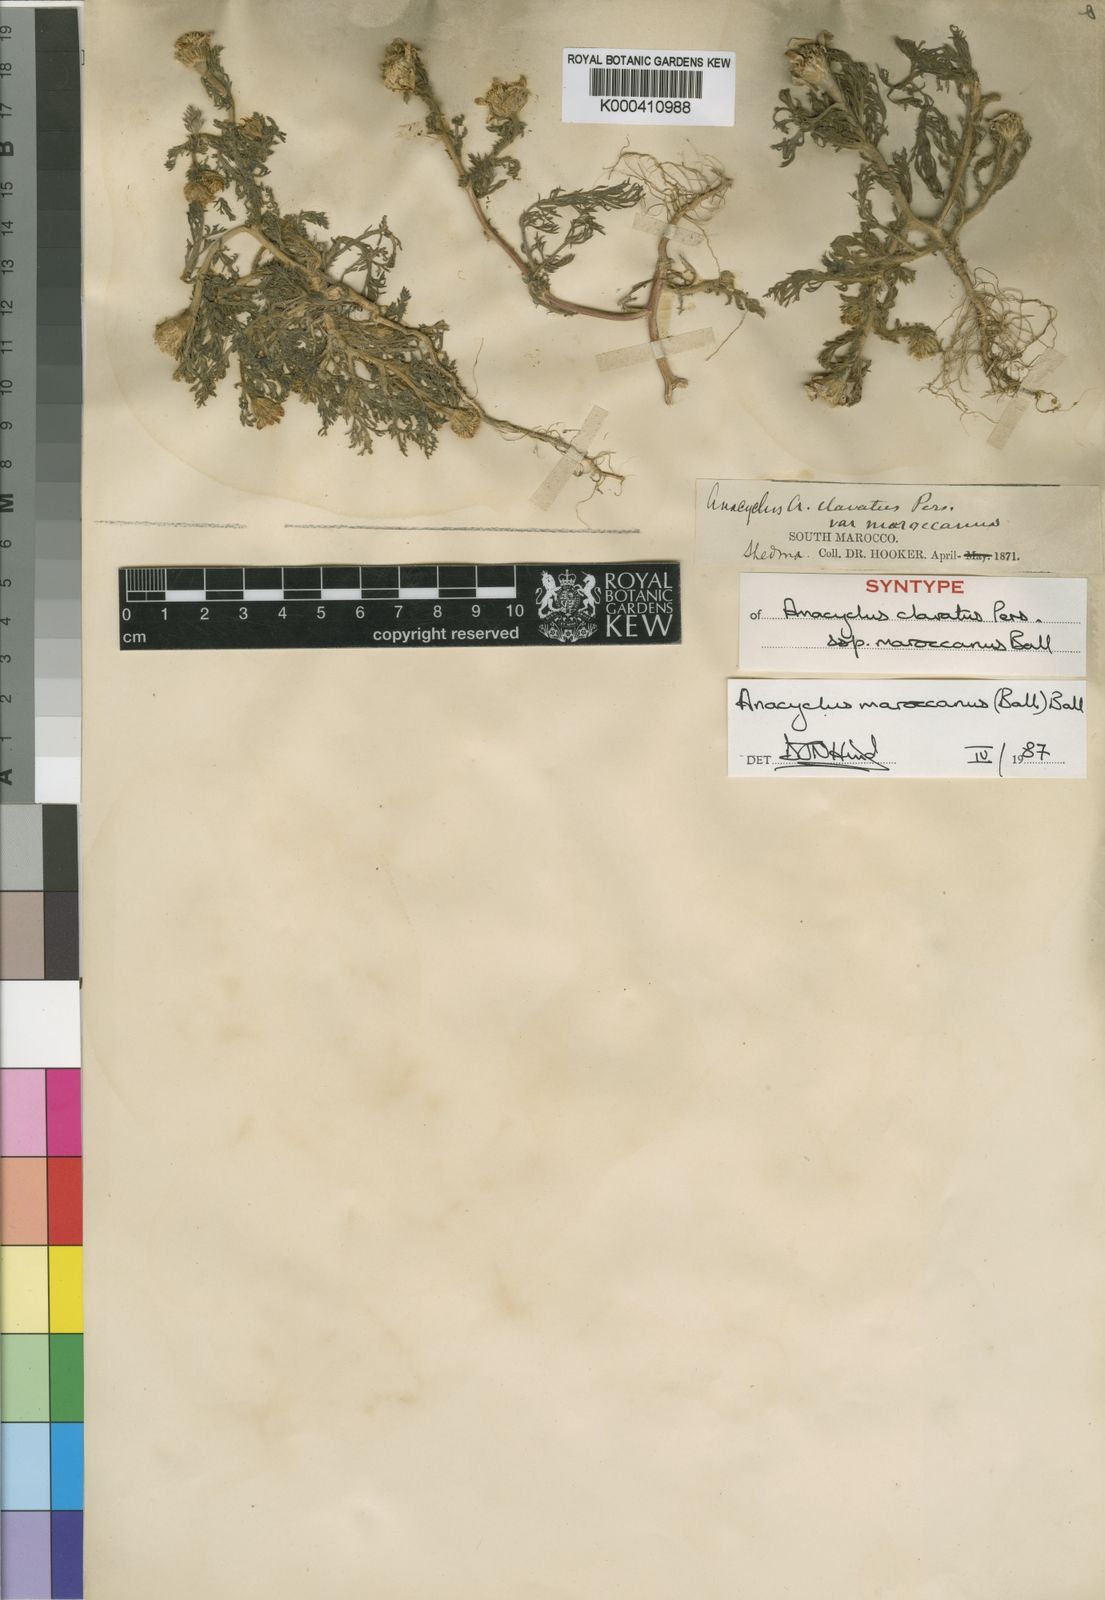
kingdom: Plantae
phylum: Tracheophyta
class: Magnoliopsida
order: Asterales
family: Asteraceae
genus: Anacyclus
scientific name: Anacyclus maroccanus
